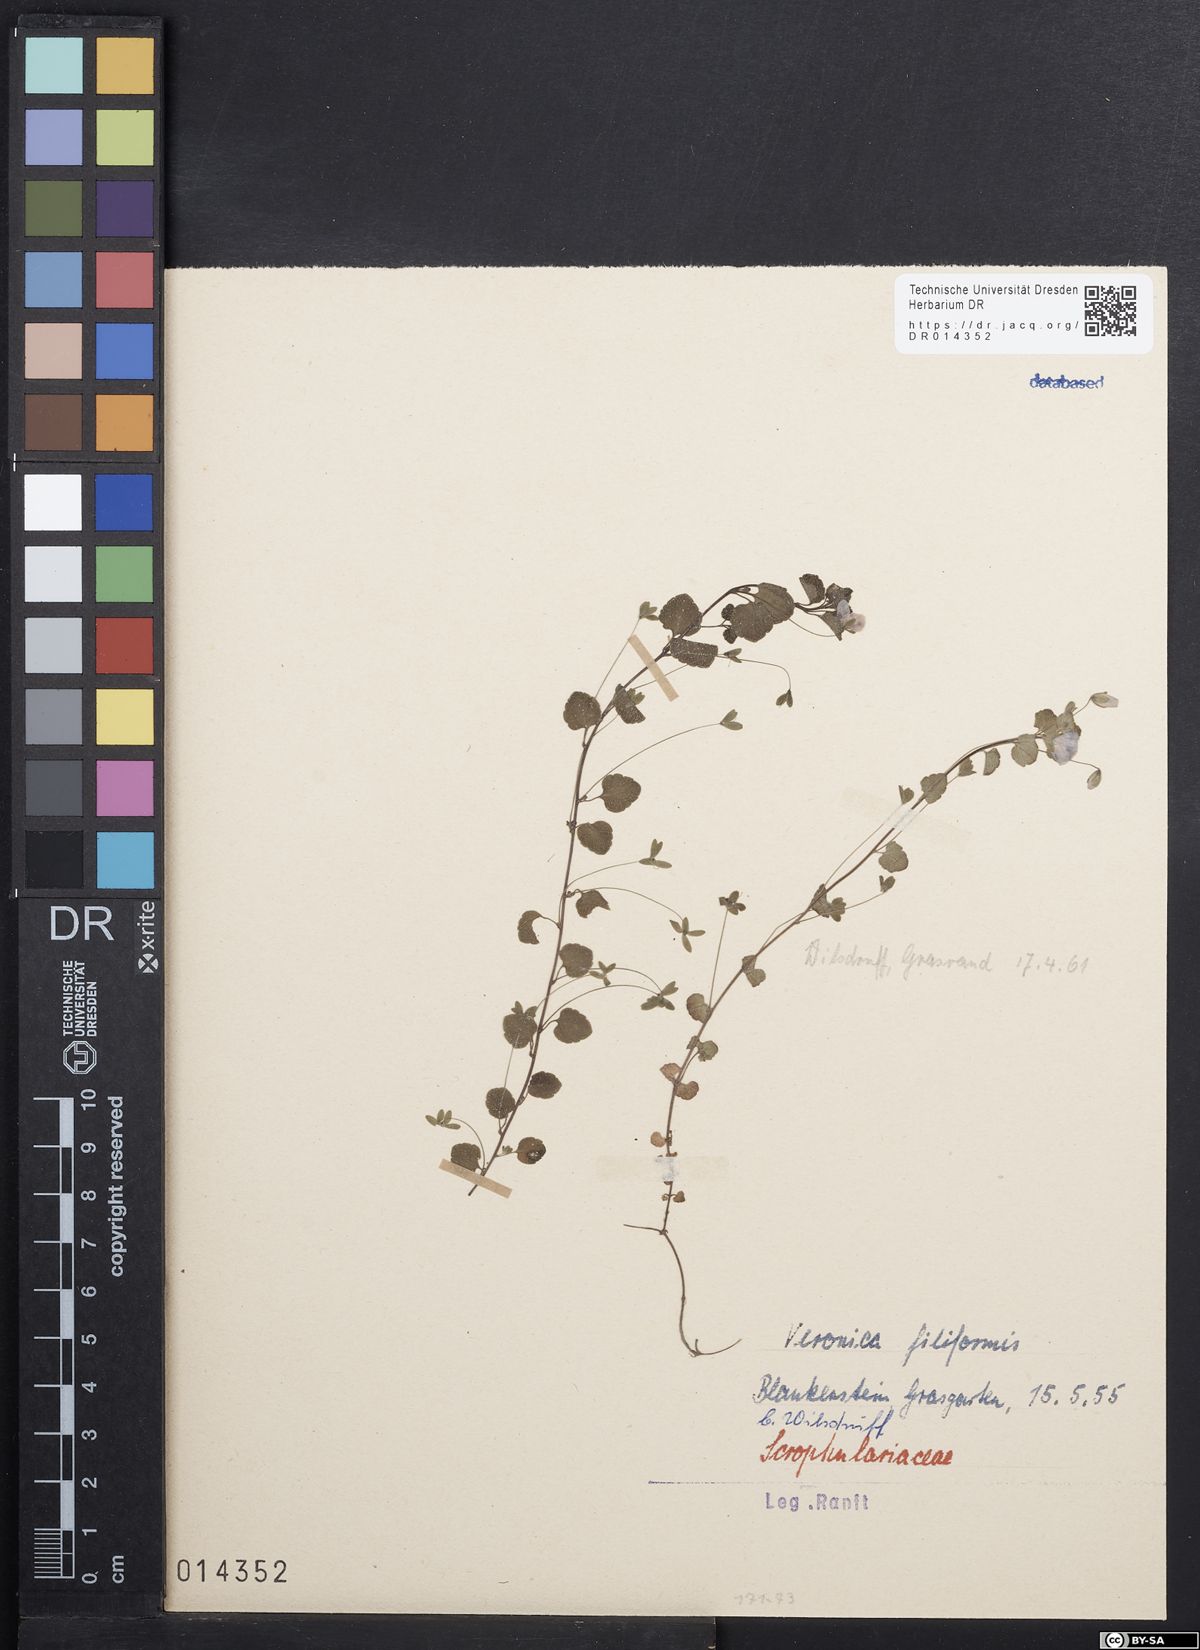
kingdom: Plantae
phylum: Tracheophyta
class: Magnoliopsida
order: Lamiales
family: Plantaginaceae
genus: Veronica
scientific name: Veronica filiformis
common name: Slender speedwell
